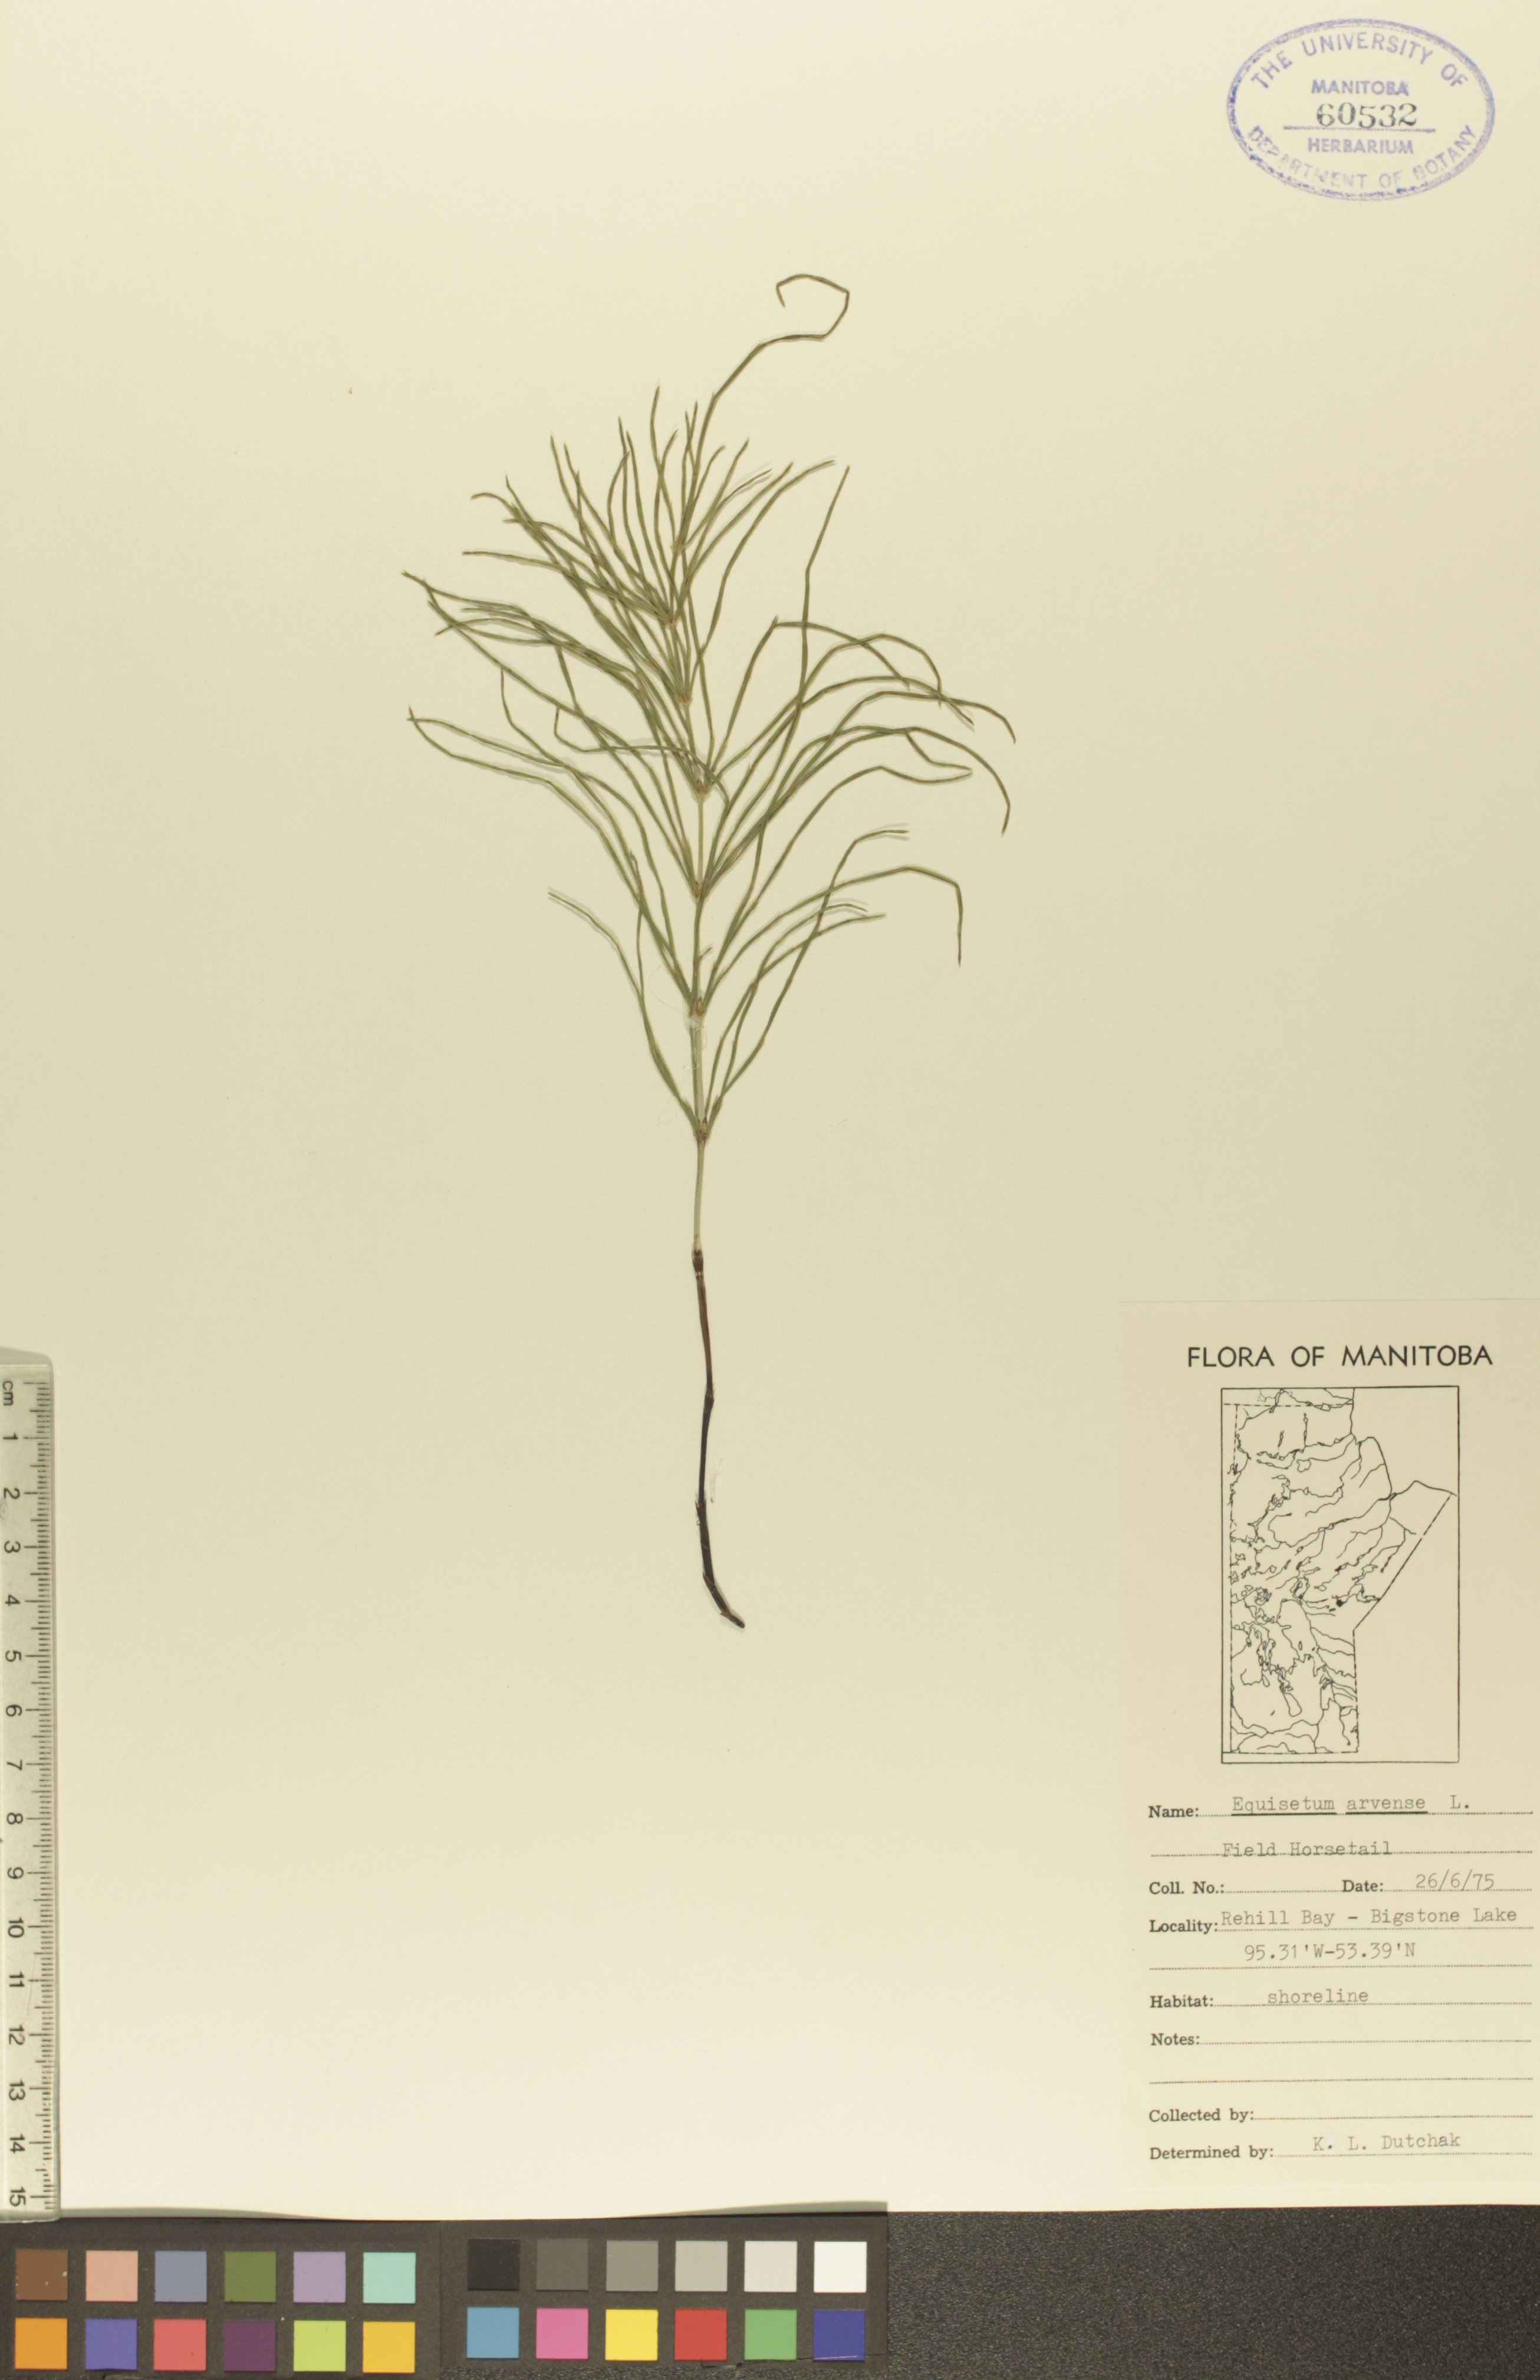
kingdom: Plantae
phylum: Tracheophyta
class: Polypodiopsida
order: Equisetales
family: Equisetaceae
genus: Equisetum
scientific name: Equisetum arvense
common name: Field horsetail
